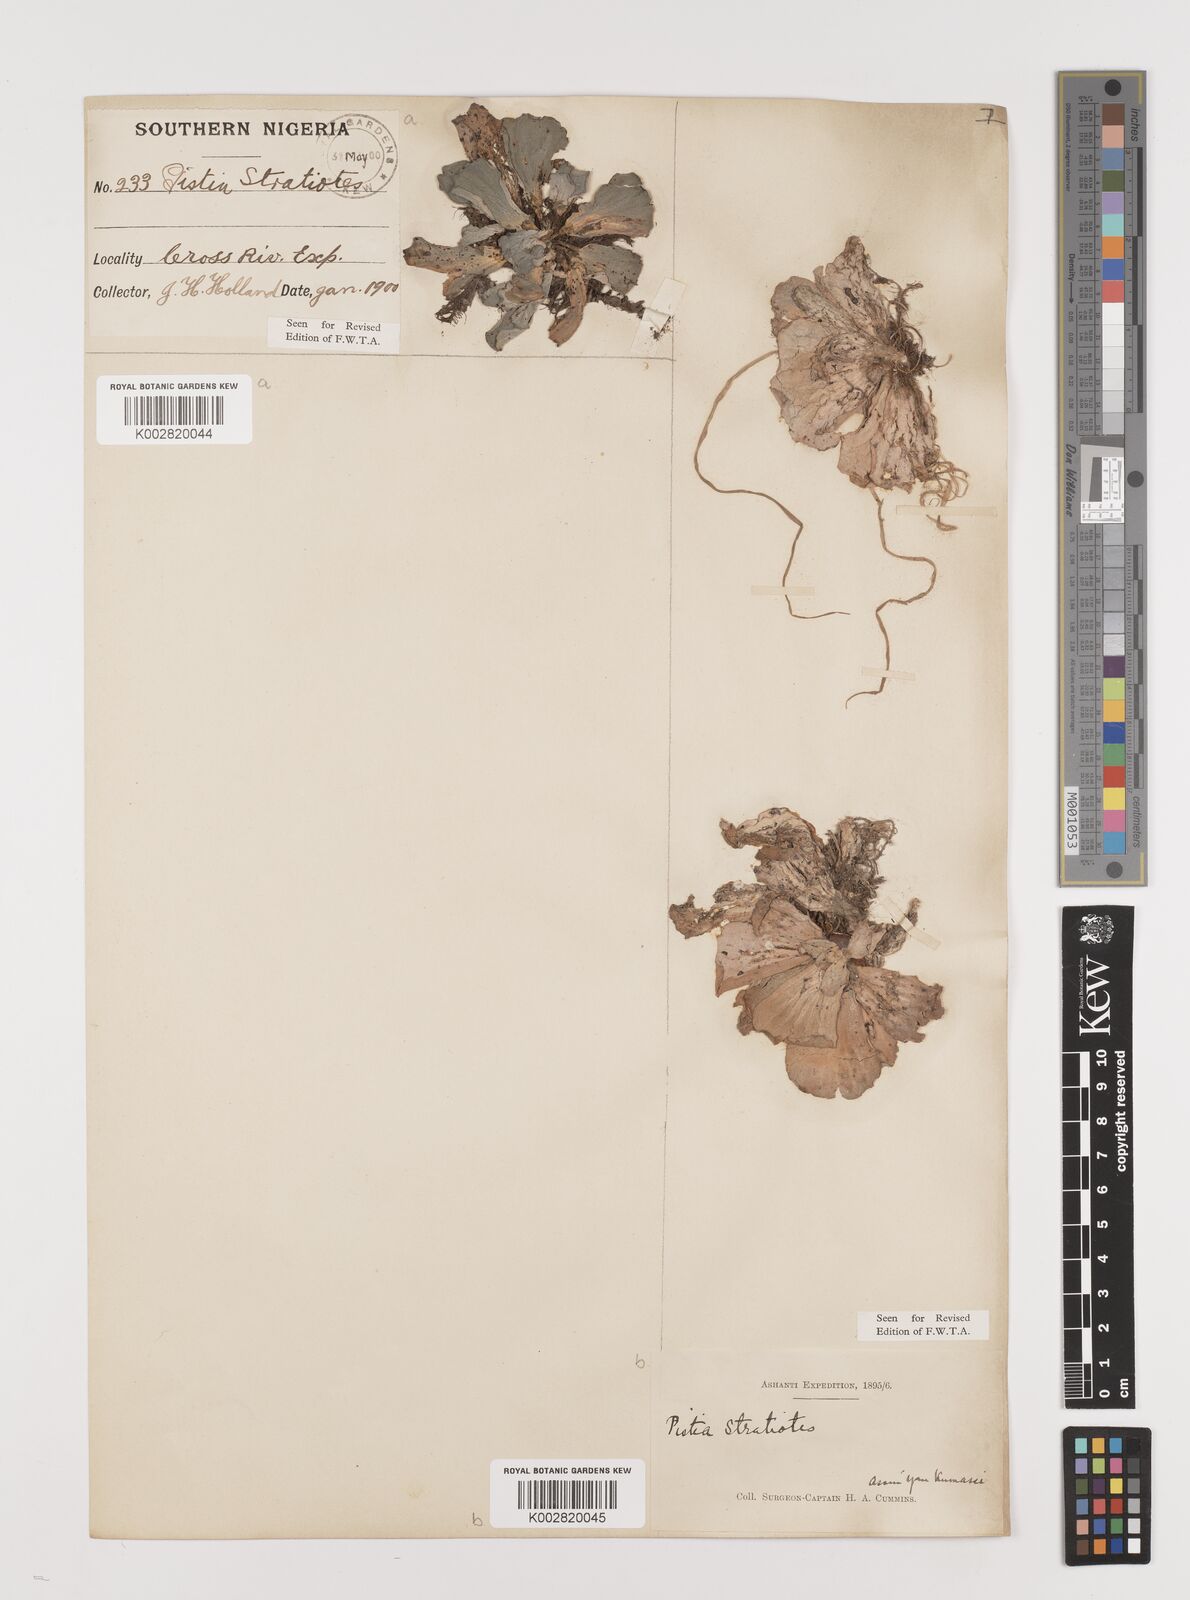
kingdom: Plantae
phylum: Tracheophyta
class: Liliopsida
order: Alismatales
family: Araceae
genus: Pistia
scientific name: Pistia stratiotes
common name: Water lettuce
